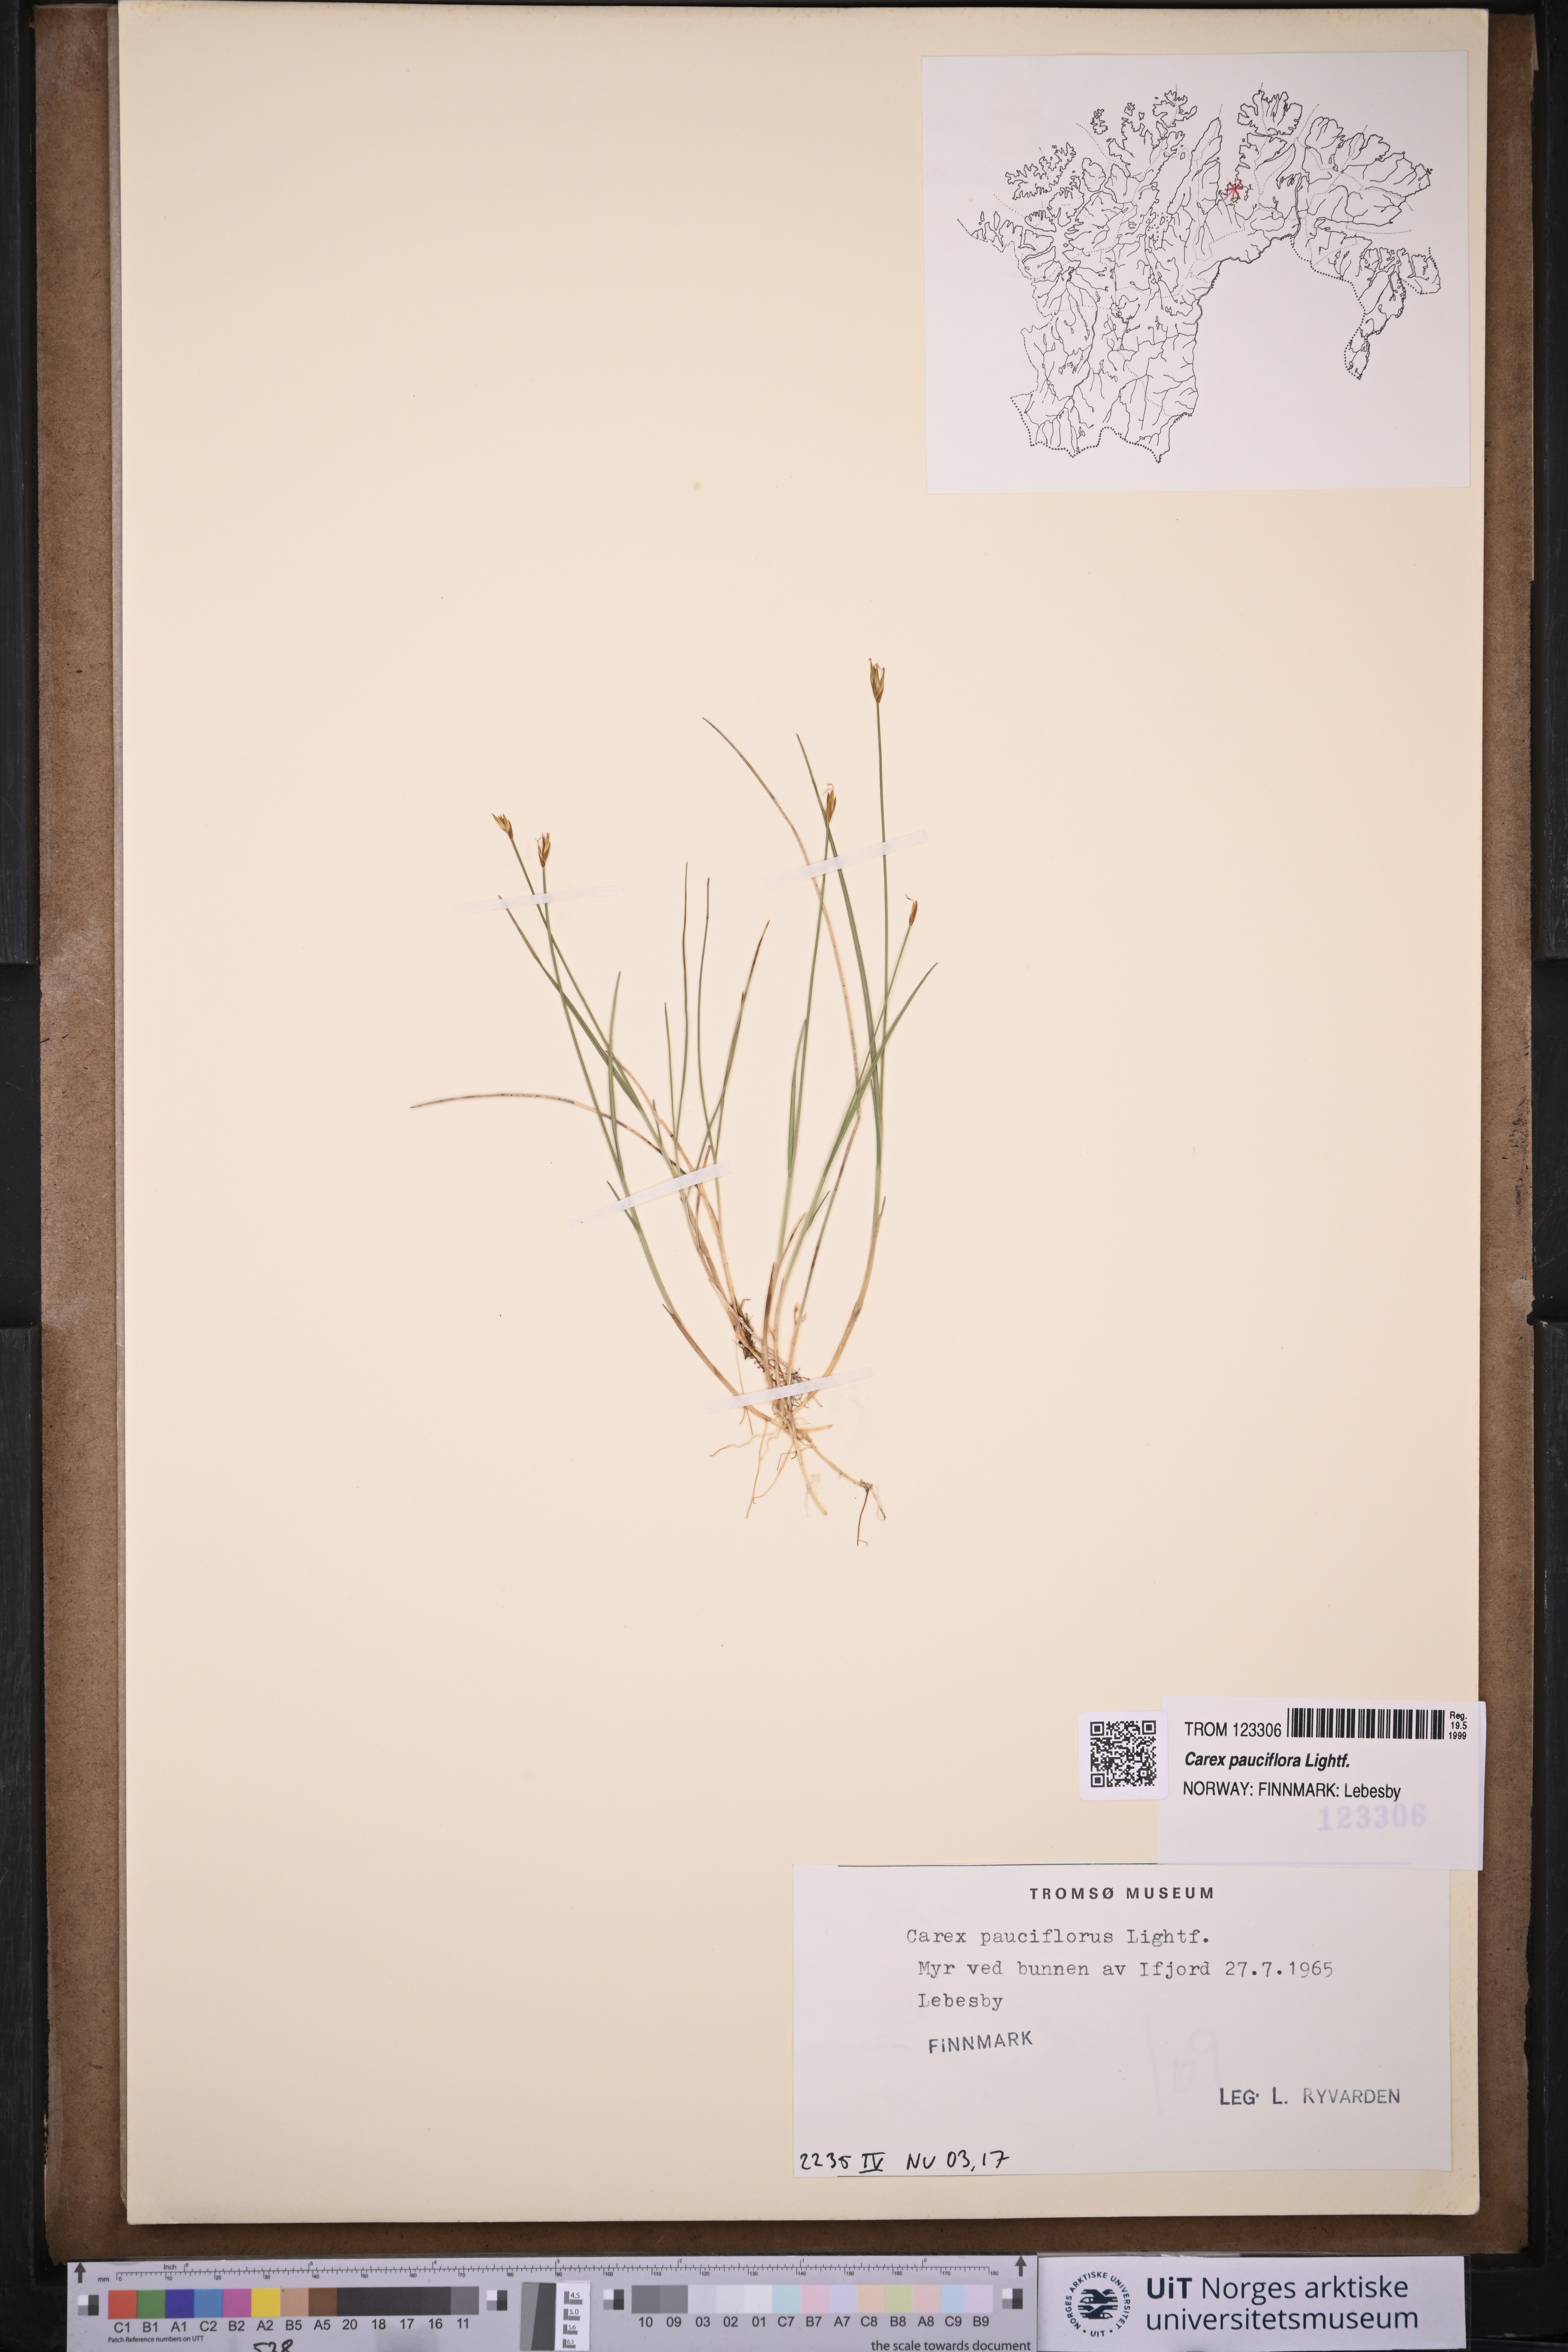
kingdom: Plantae
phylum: Tracheophyta
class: Liliopsida
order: Poales
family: Cyperaceae
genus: Carex
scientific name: Carex pauciflora
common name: Few-flowered sedge
